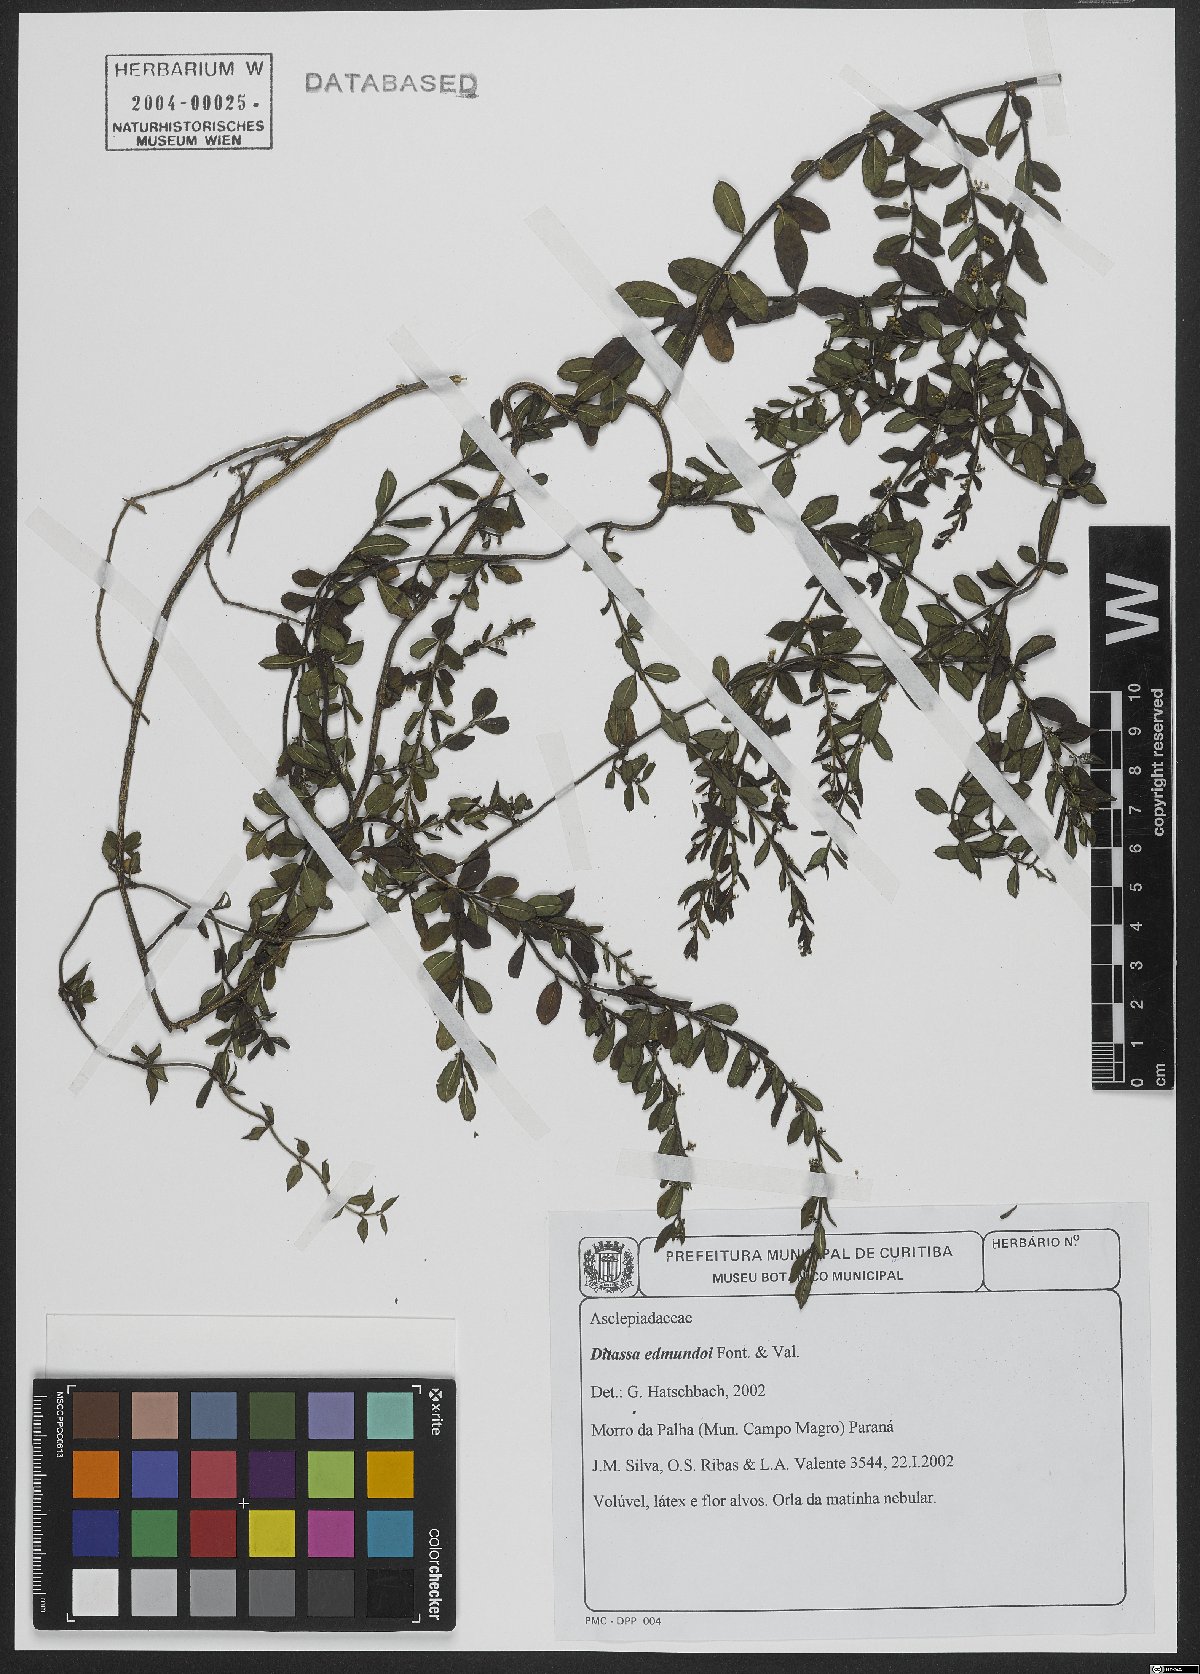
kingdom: Plantae
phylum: Tracheophyta
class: Magnoliopsida
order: Gentianales
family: Apocynaceae
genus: Ditassa
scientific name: Ditassa edmundoi
